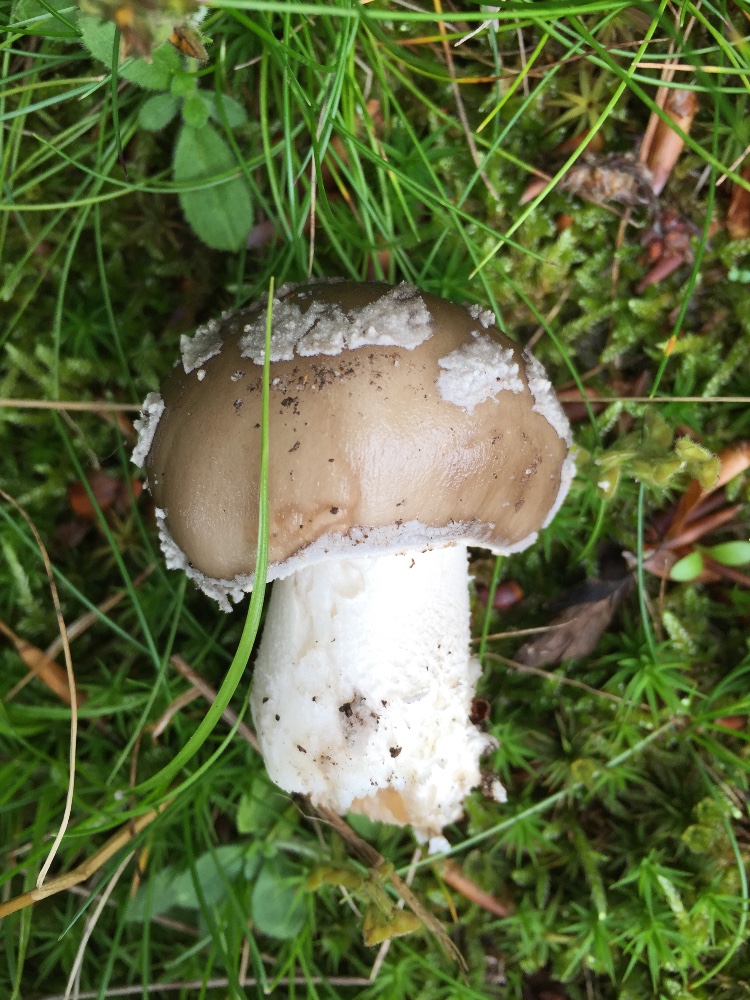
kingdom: Fungi
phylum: Basidiomycota
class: Agaricomycetes
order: Agaricales
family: Amanitaceae
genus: Amanita
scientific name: Amanita
